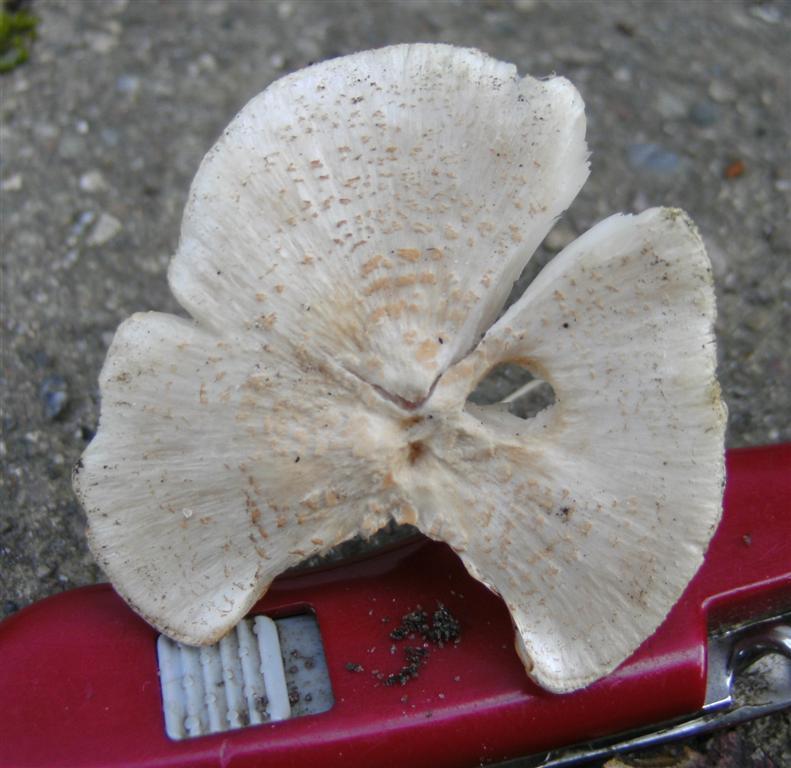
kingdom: Fungi
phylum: Basidiomycota
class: Agaricomycetes
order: Agaricales
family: Agaricaceae
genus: Lepiota
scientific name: Lepiota cristata
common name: stinkende parasolhat
